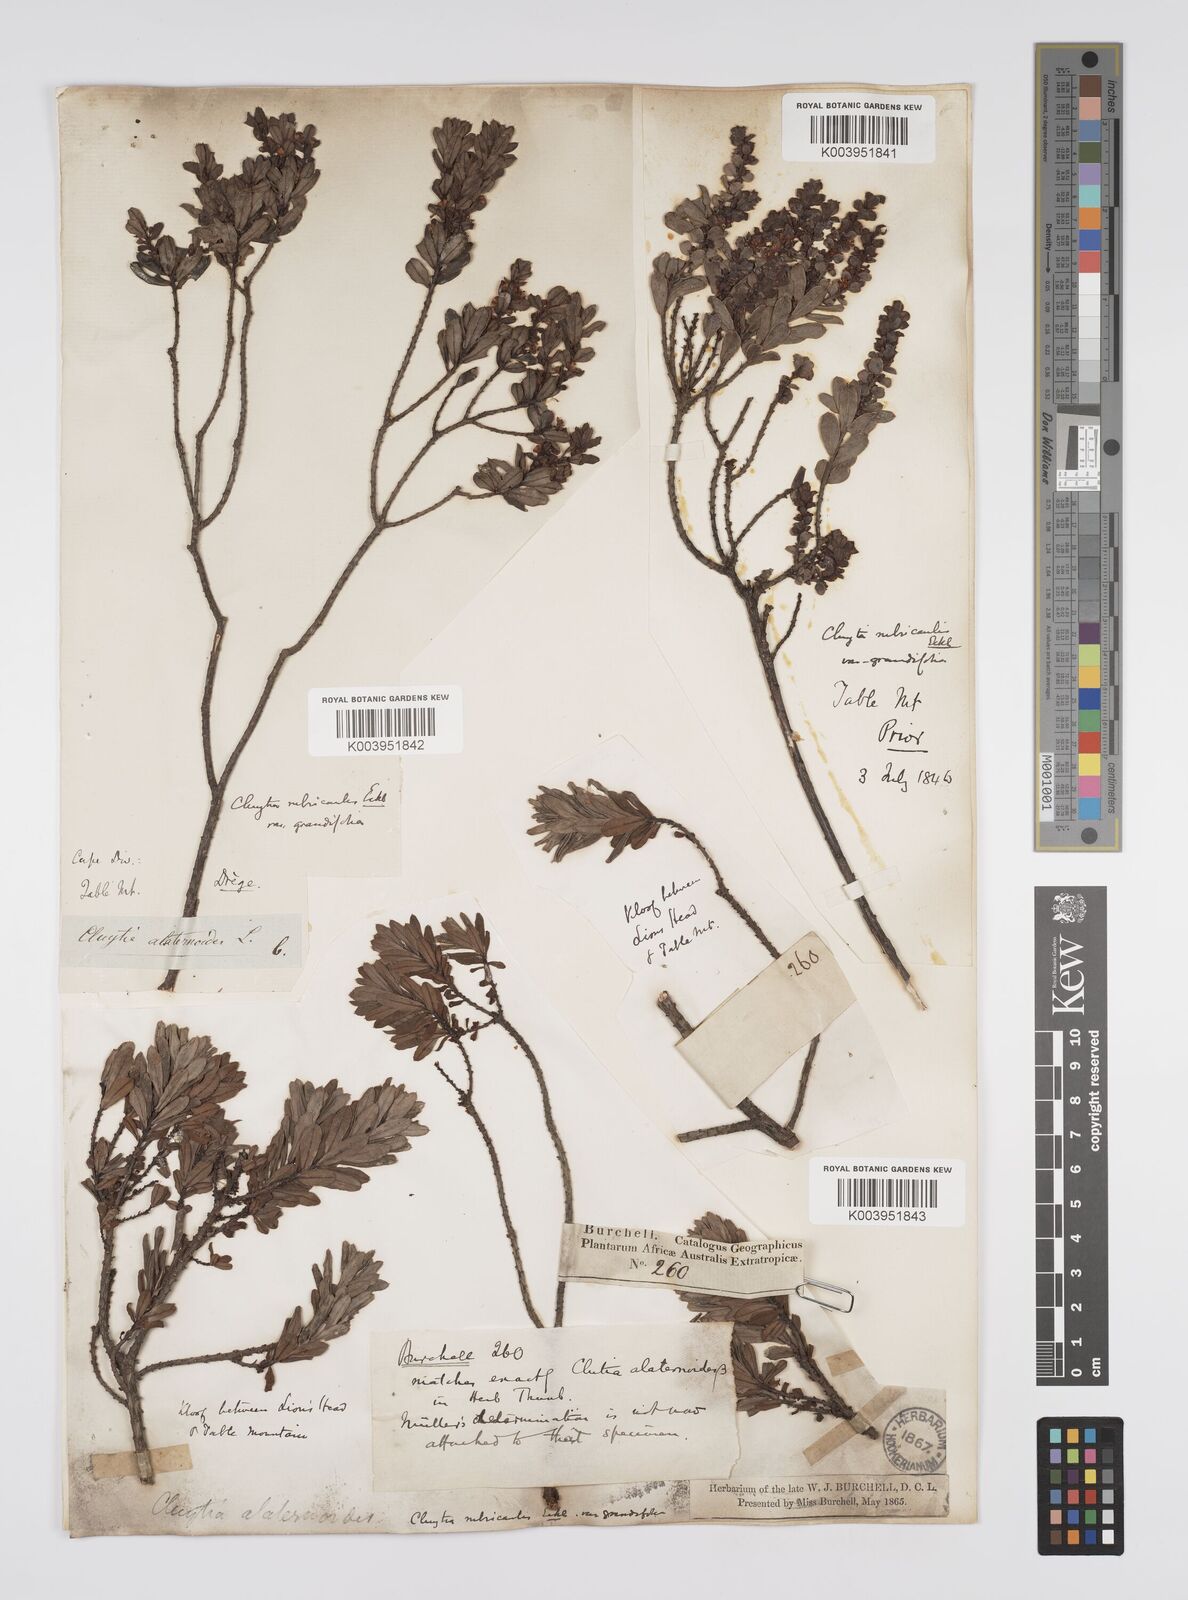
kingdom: Plantae
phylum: Tracheophyta
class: Magnoliopsida
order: Malpighiales
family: Peraceae
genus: Clutia
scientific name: Clutia rubricaulis
